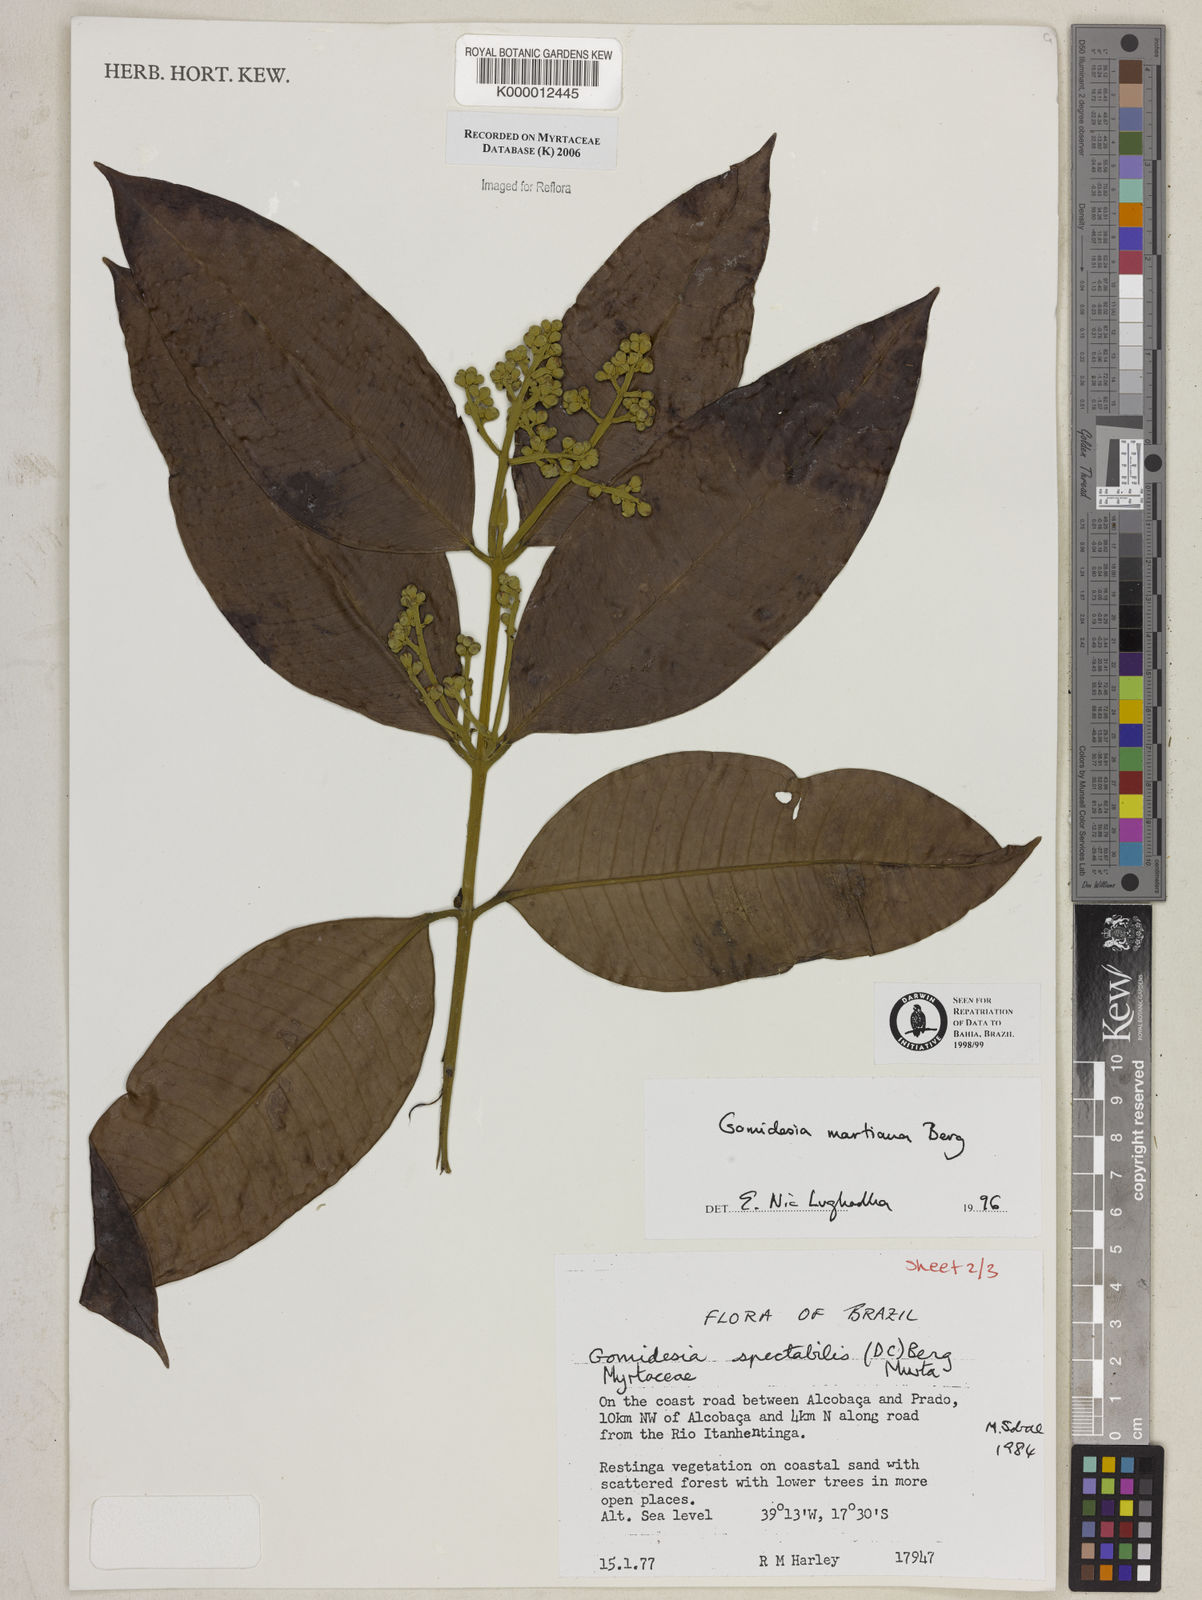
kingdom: Plantae
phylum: Tracheophyta
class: Magnoliopsida
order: Myrtales
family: Myrtaceae
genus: Myrcia
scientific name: Myrcia vittoriana
